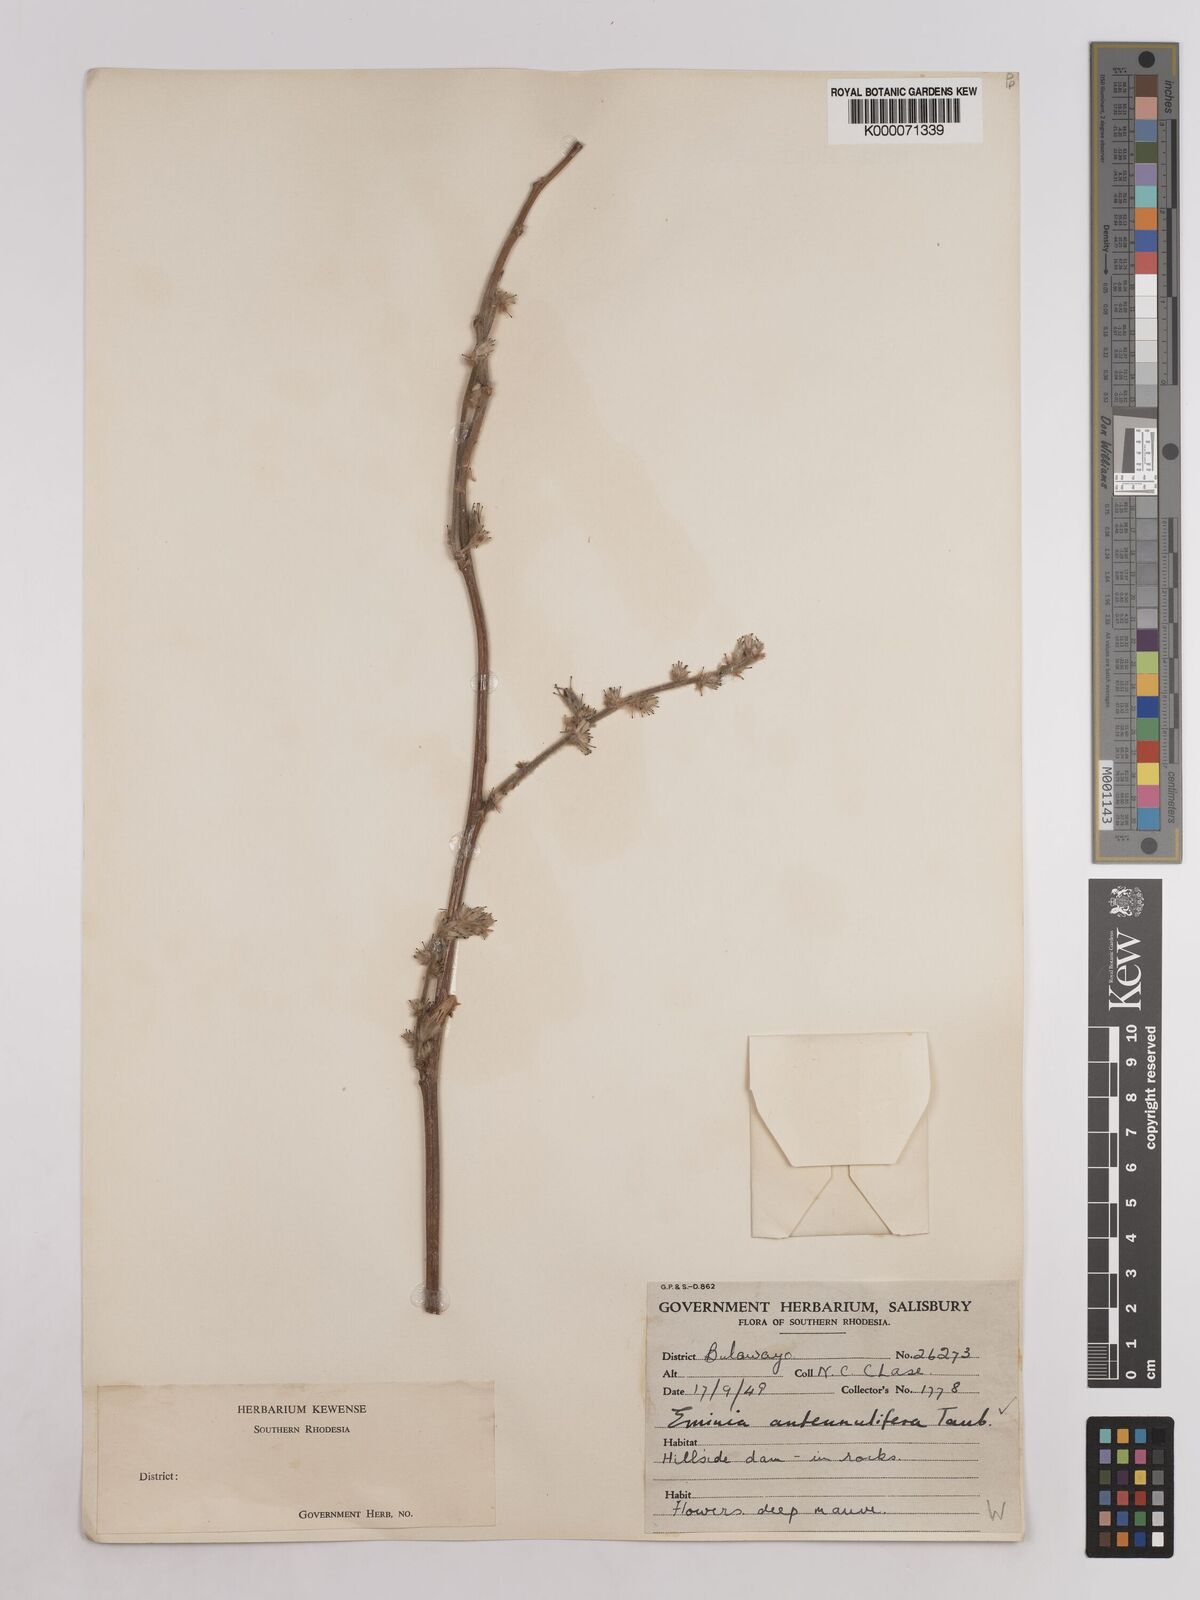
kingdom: Plantae
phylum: Tracheophyta
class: Magnoliopsida
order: Fabales
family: Fabaceae
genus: Eminia
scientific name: Eminia antennulifera
